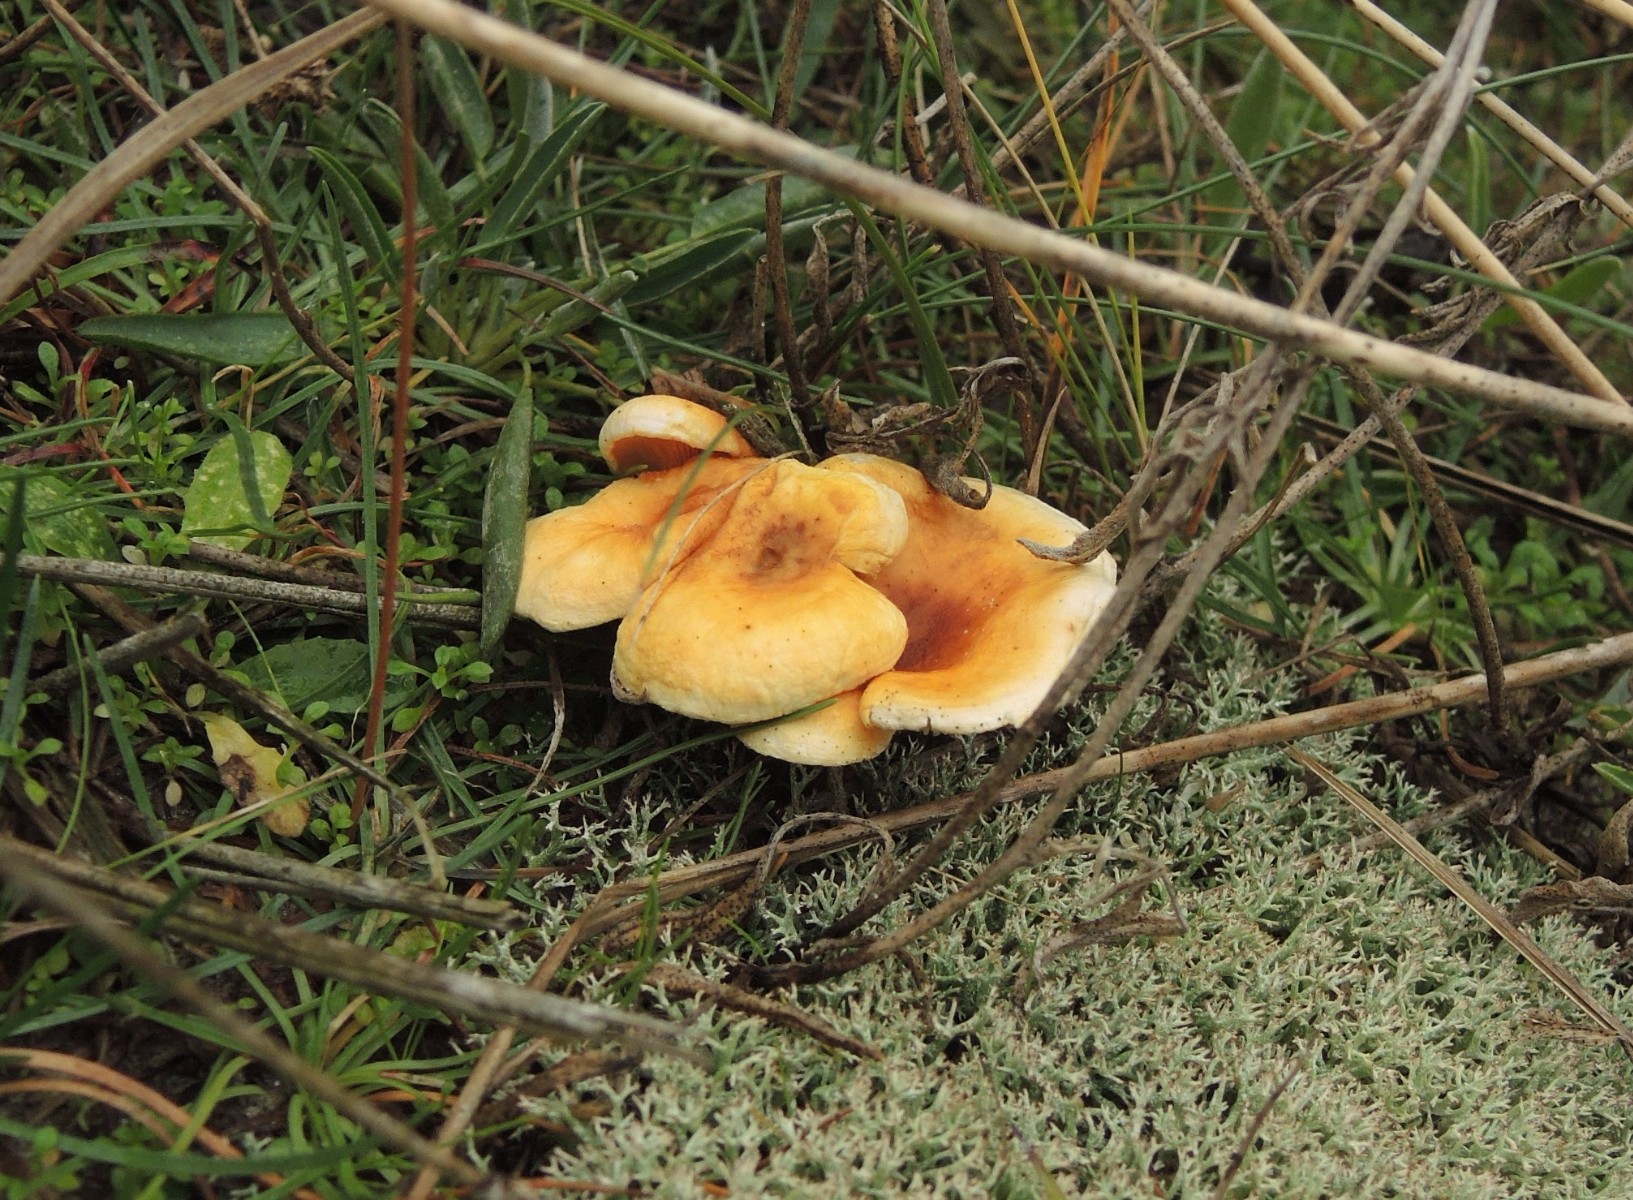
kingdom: Fungi
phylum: Basidiomycota
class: Agaricomycetes
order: Boletales
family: Hygrophoropsidaceae
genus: Hygrophoropsis
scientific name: Hygrophoropsis aurantiaca
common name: almindelig orangekantarel
